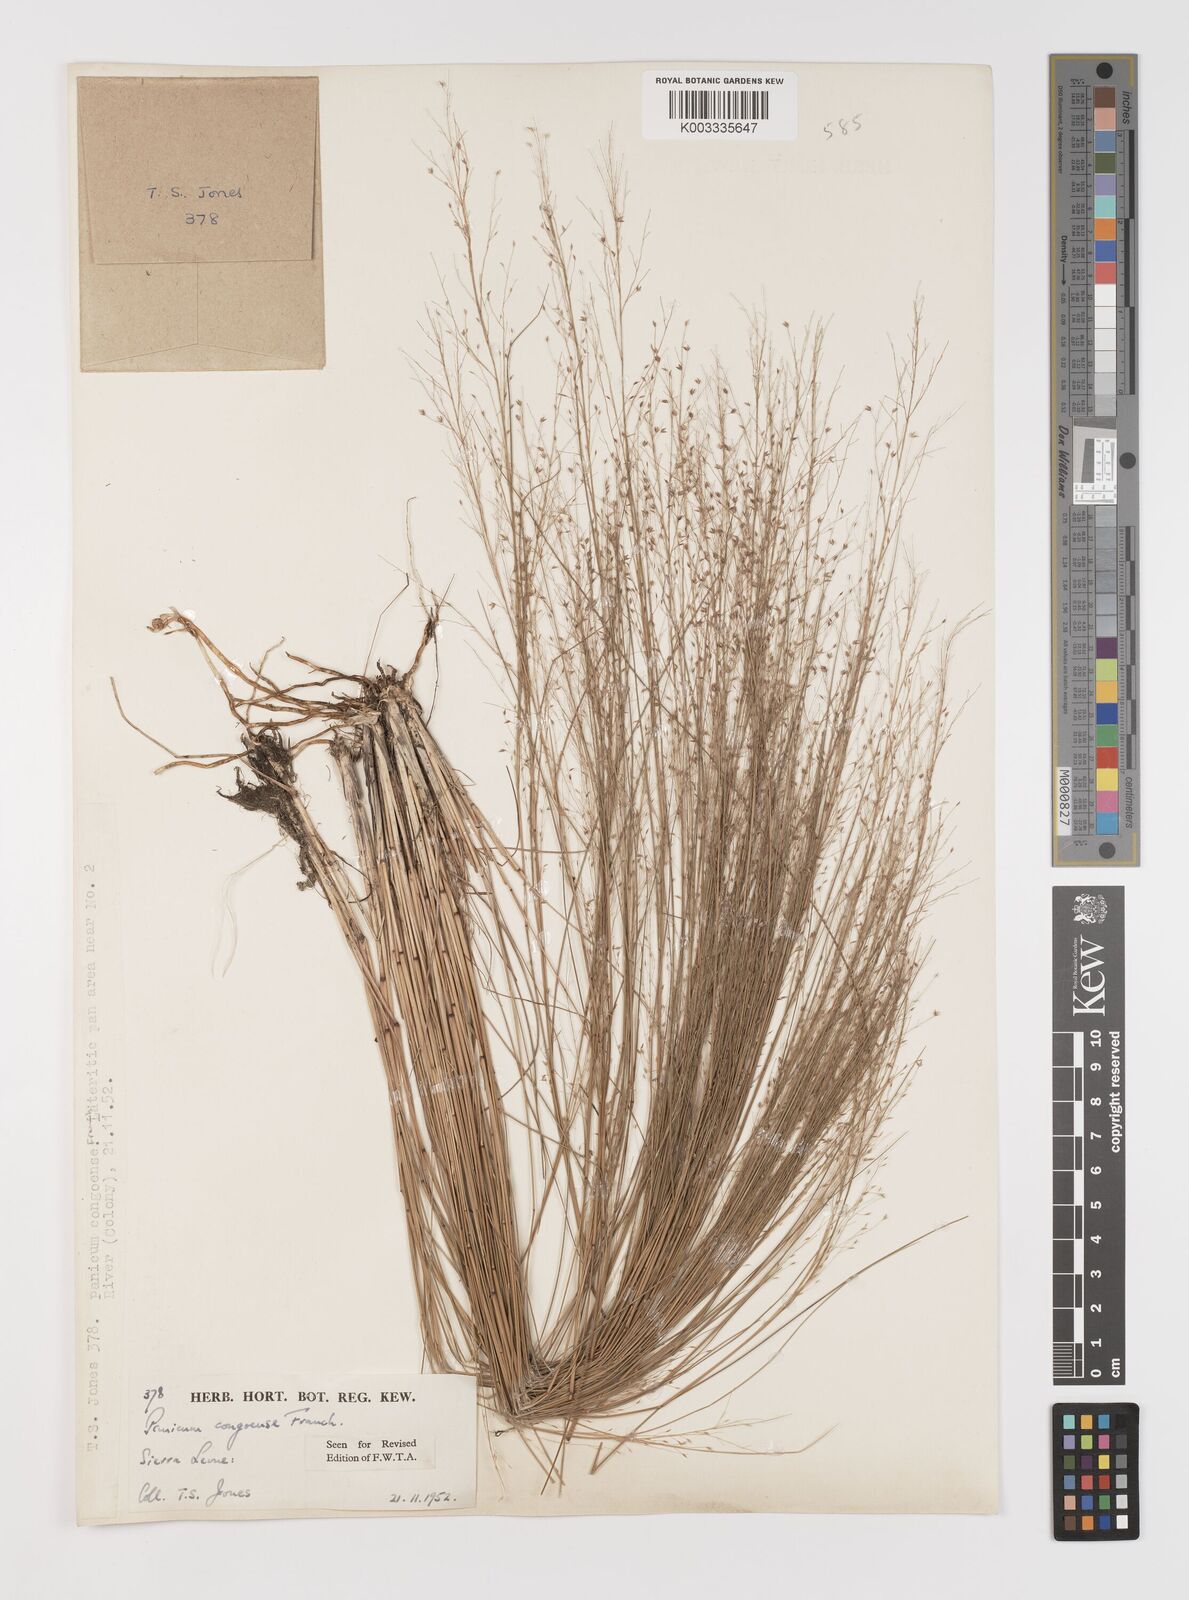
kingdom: Plantae
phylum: Tracheophyta
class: Liliopsida
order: Poales
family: Poaceae
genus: Panicum
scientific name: Panicum congoense
